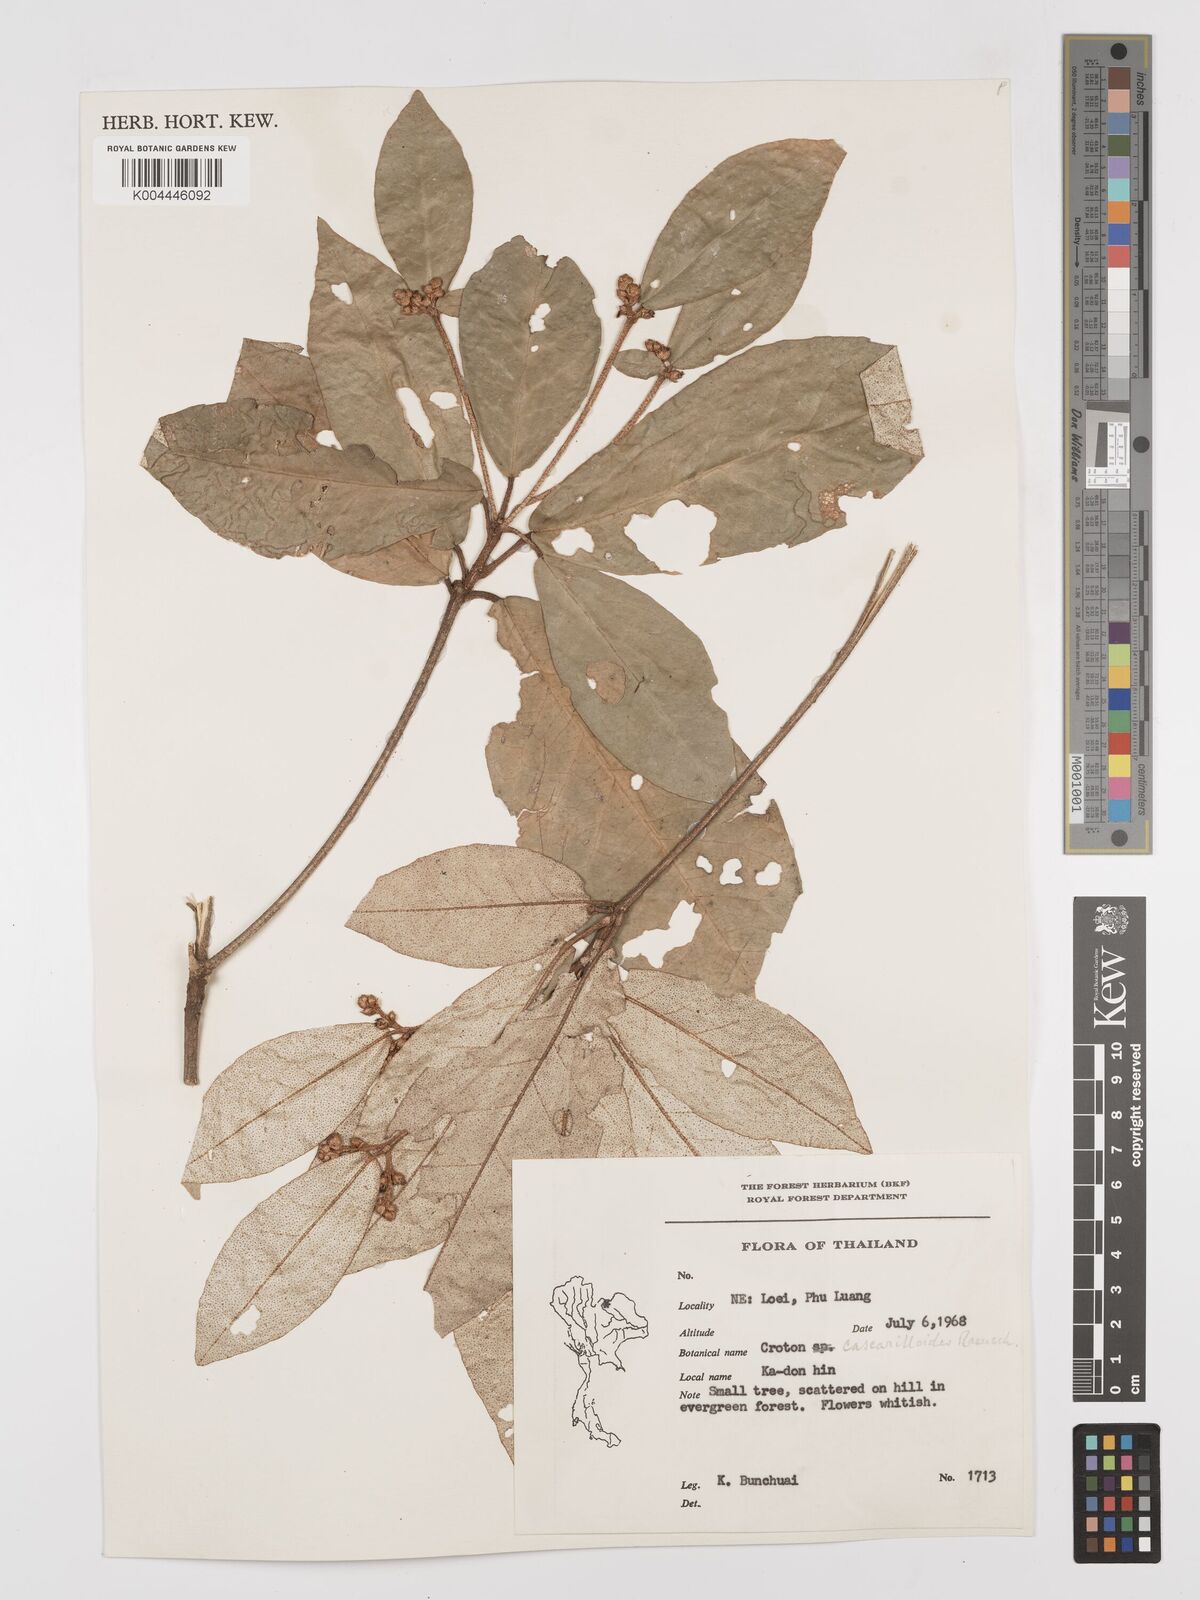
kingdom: Plantae
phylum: Tracheophyta
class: Magnoliopsida
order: Malpighiales
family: Euphorbiaceae
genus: Croton
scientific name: Croton
